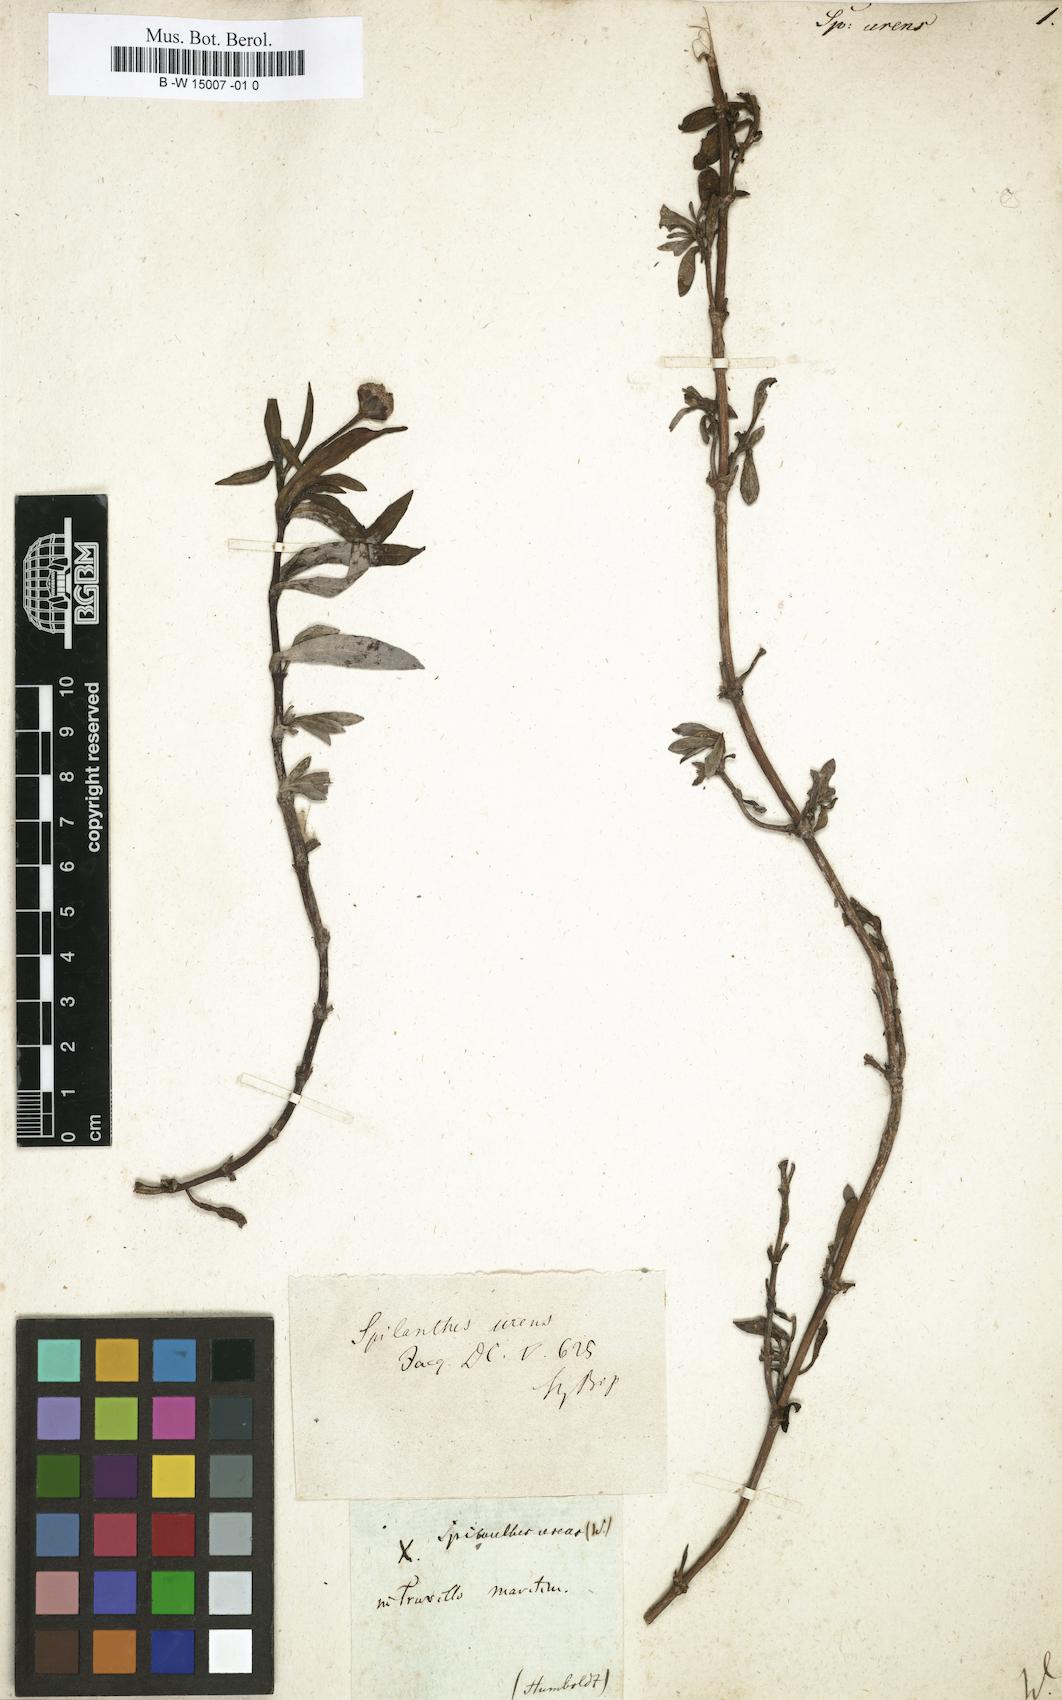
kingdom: Plantae
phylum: Tracheophyta
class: Magnoliopsida
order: Asterales
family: Asteraceae
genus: Spilanthes
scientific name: Spilanthes urens
